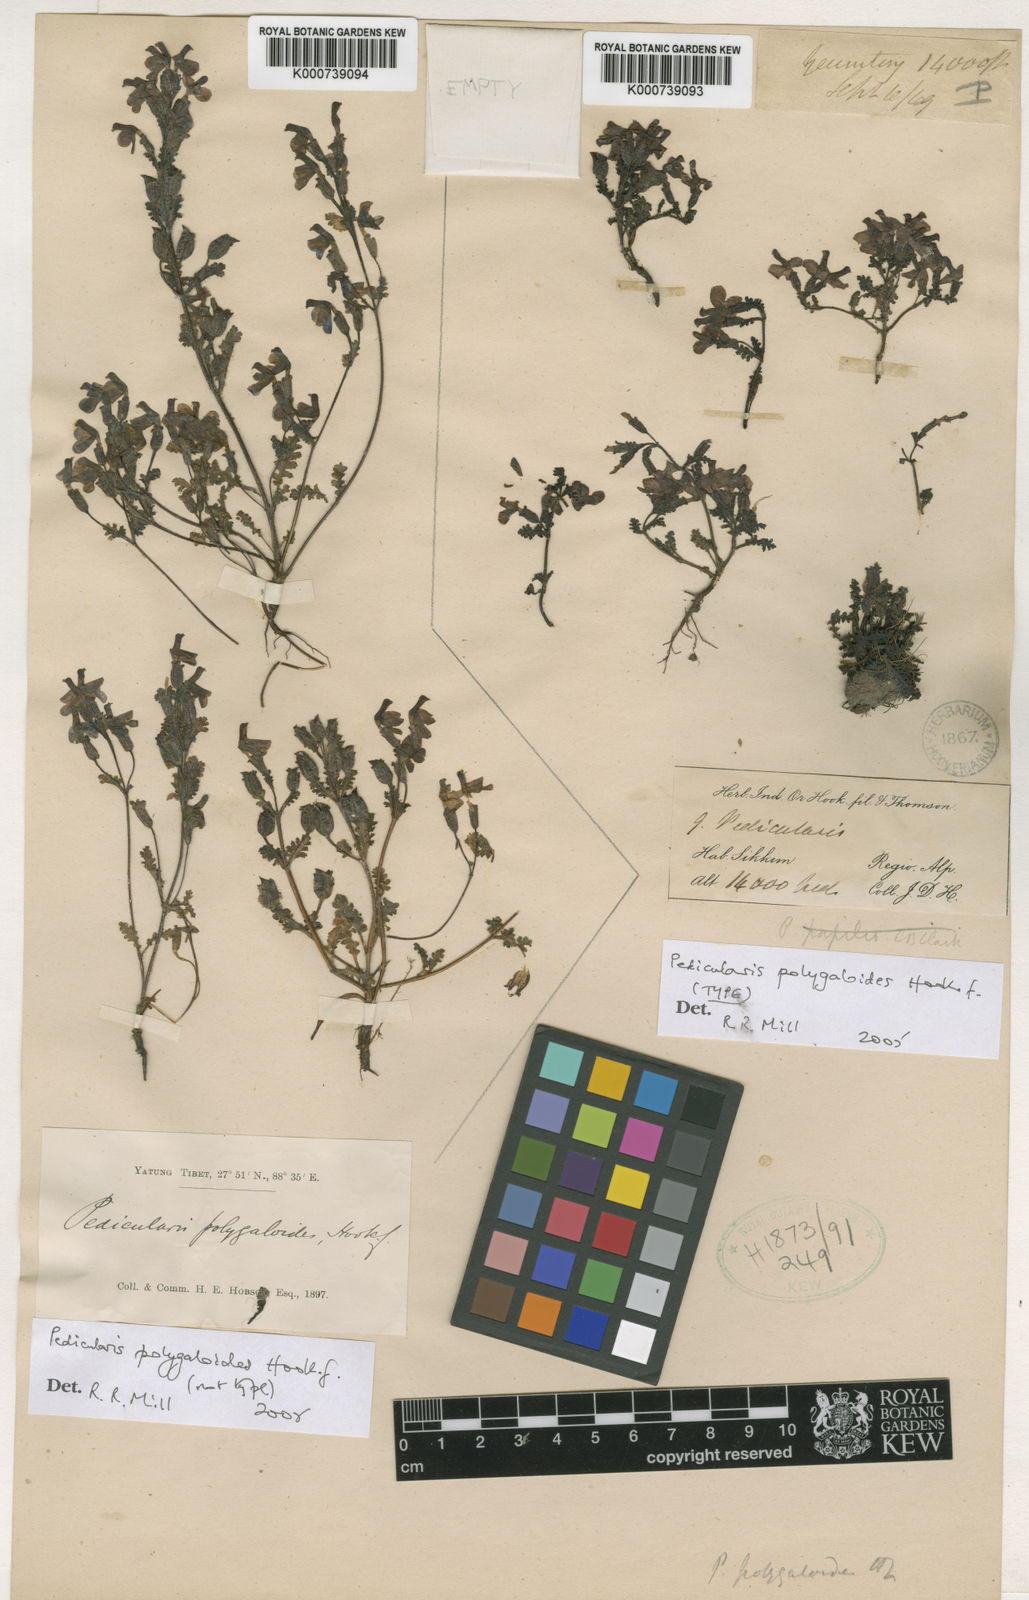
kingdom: Plantae
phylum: Tracheophyta
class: Magnoliopsida
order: Lamiales
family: Orobanchaceae
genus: Pedicularis
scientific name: Pedicularis polygaloides
